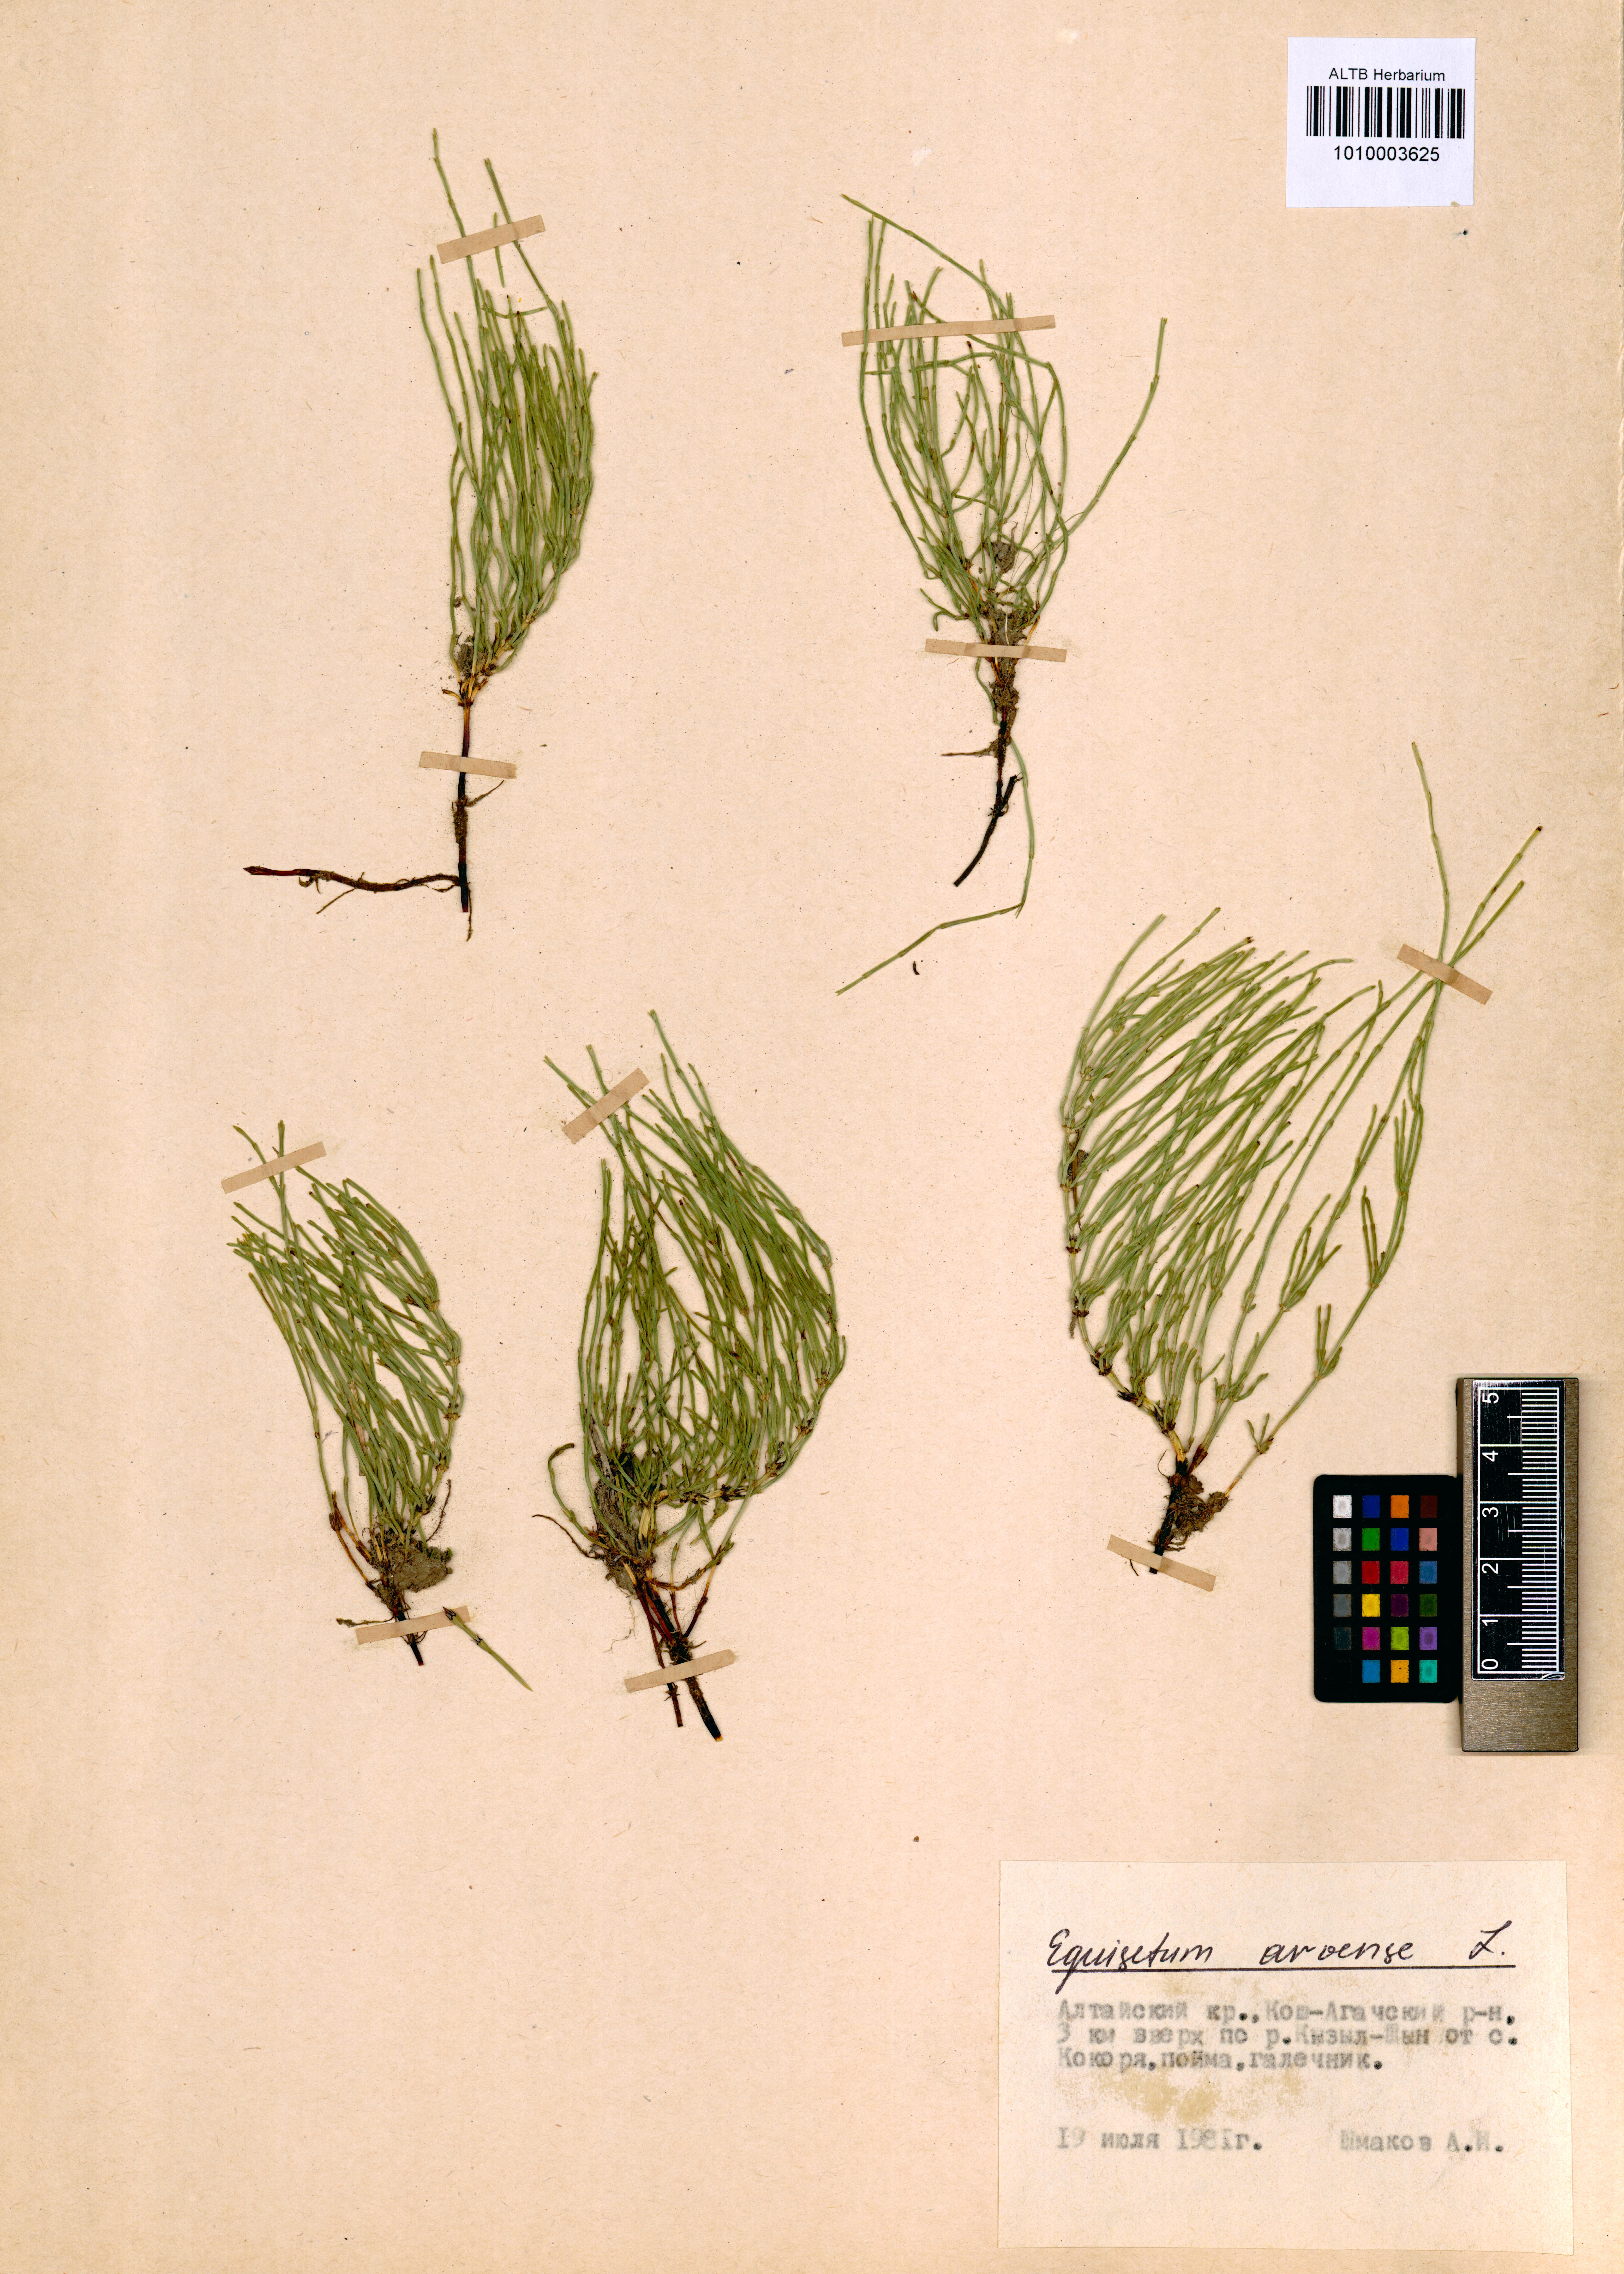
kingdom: Plantae
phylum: Tracheophyta
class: Polypodiopsida
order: Equisetales
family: Equisetaceae
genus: Equisetum
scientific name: Equisetum arvense
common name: Field horsetail
